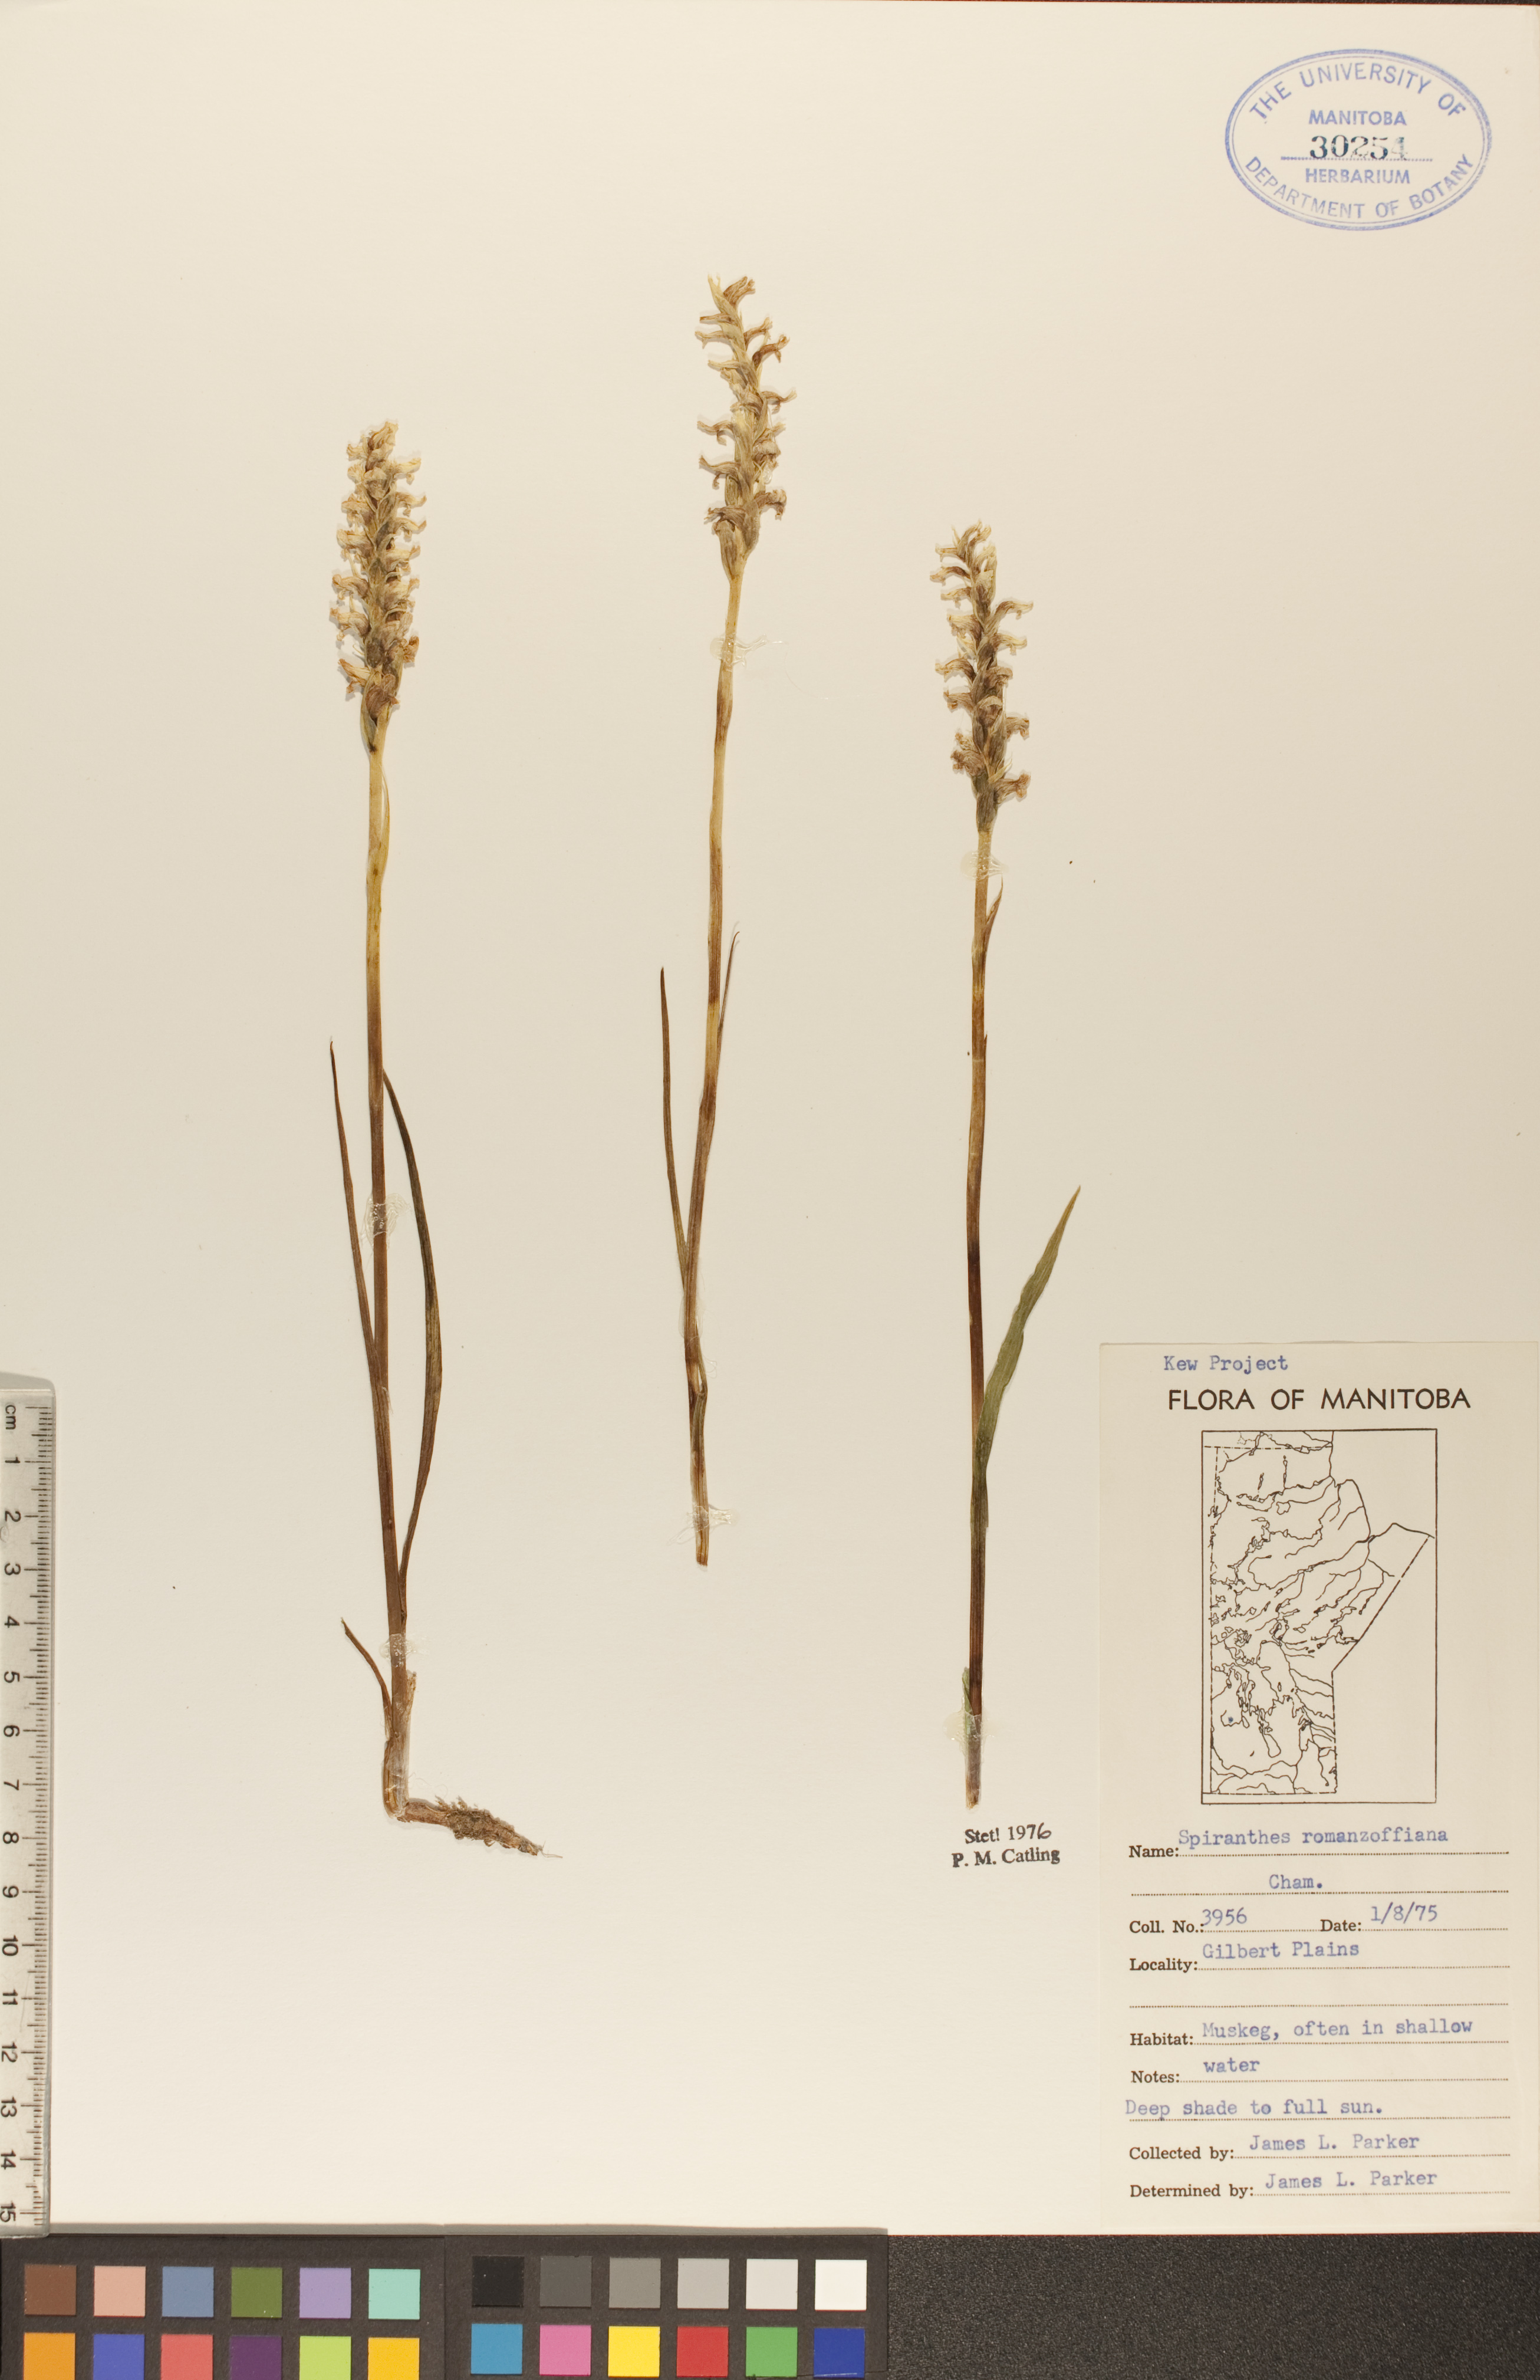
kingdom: Plantae
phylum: Tracheophyta
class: Liliopsida
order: Asparagales
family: Orchidaceae
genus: Spiranthes
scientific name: Spiranthes romanzoffiana
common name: Irish lady's-tresses
